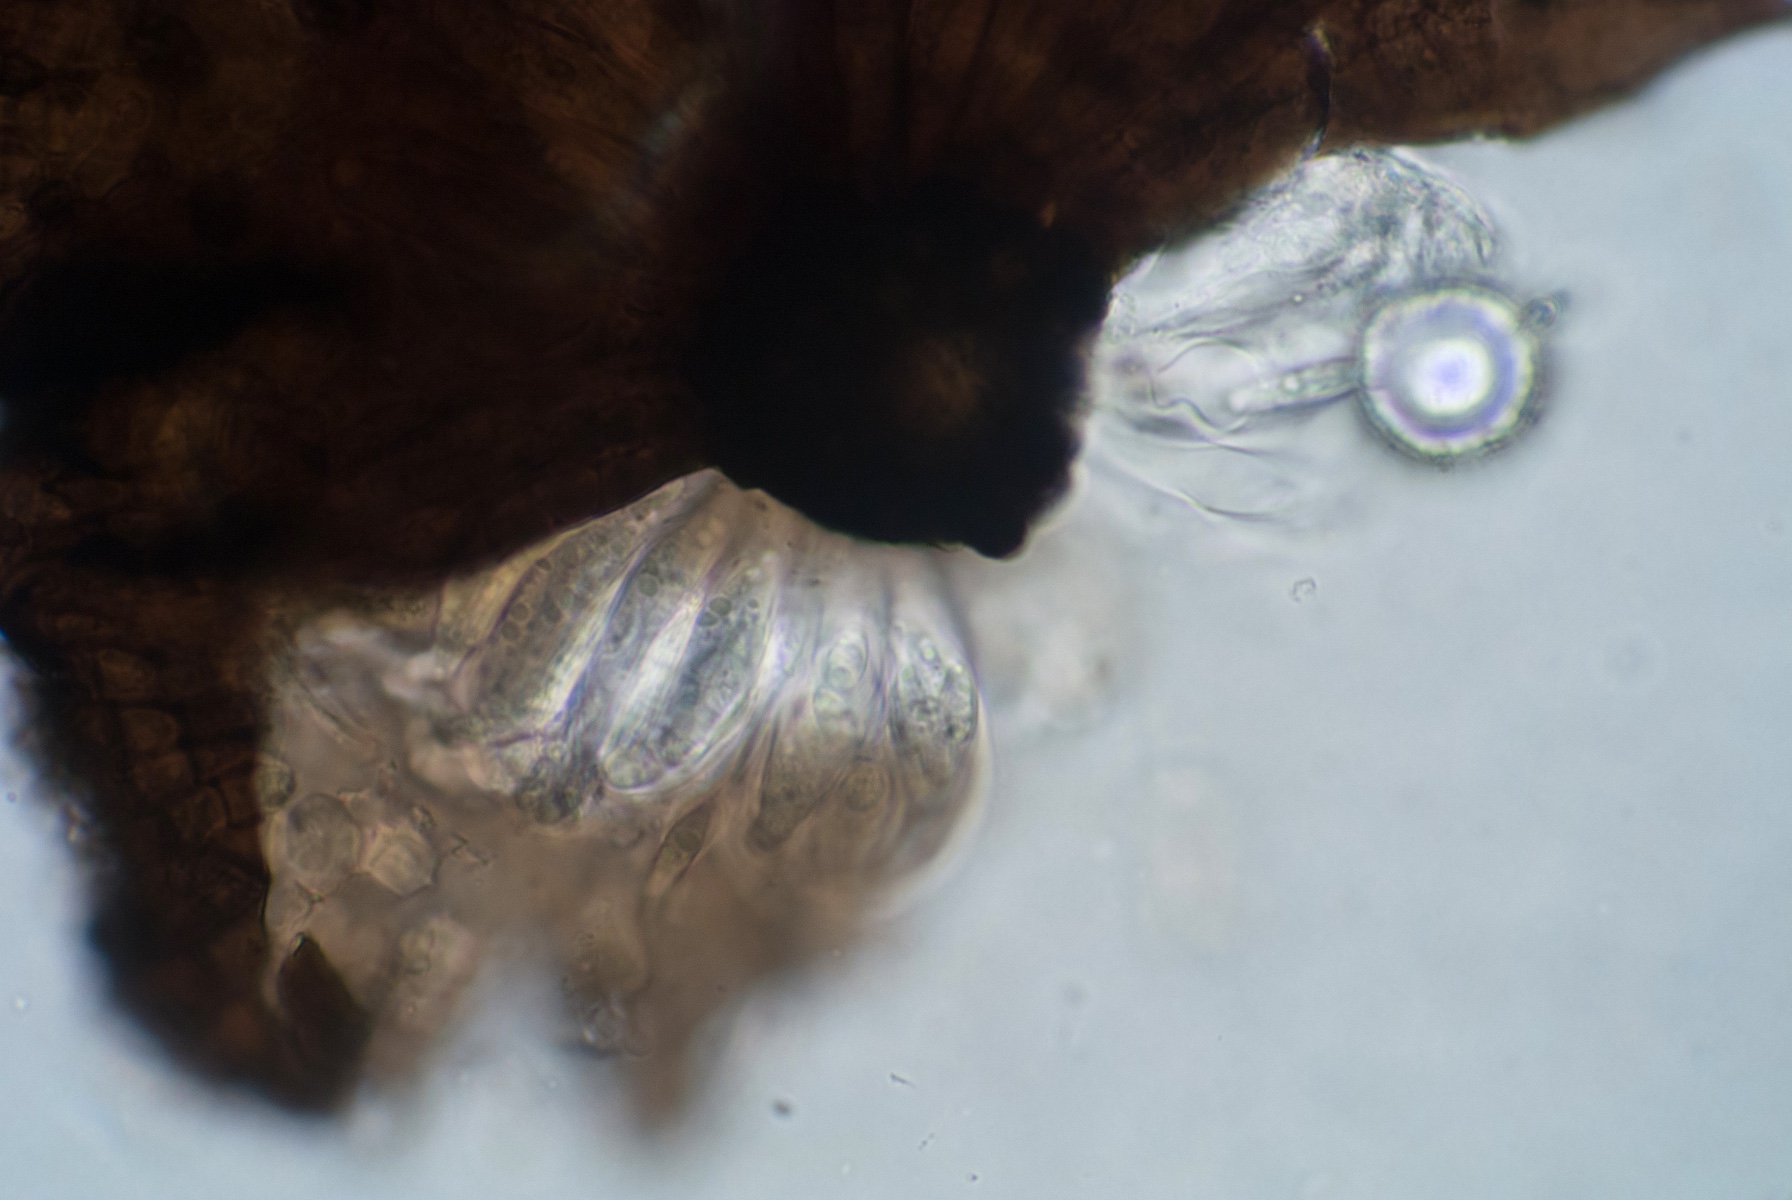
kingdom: Fungi
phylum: Ascomycota
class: Dothideomycetes
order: Microthyriales
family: Microthyriaceae
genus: Lichenopeltella
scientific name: Lichenopeltella ammophilae
